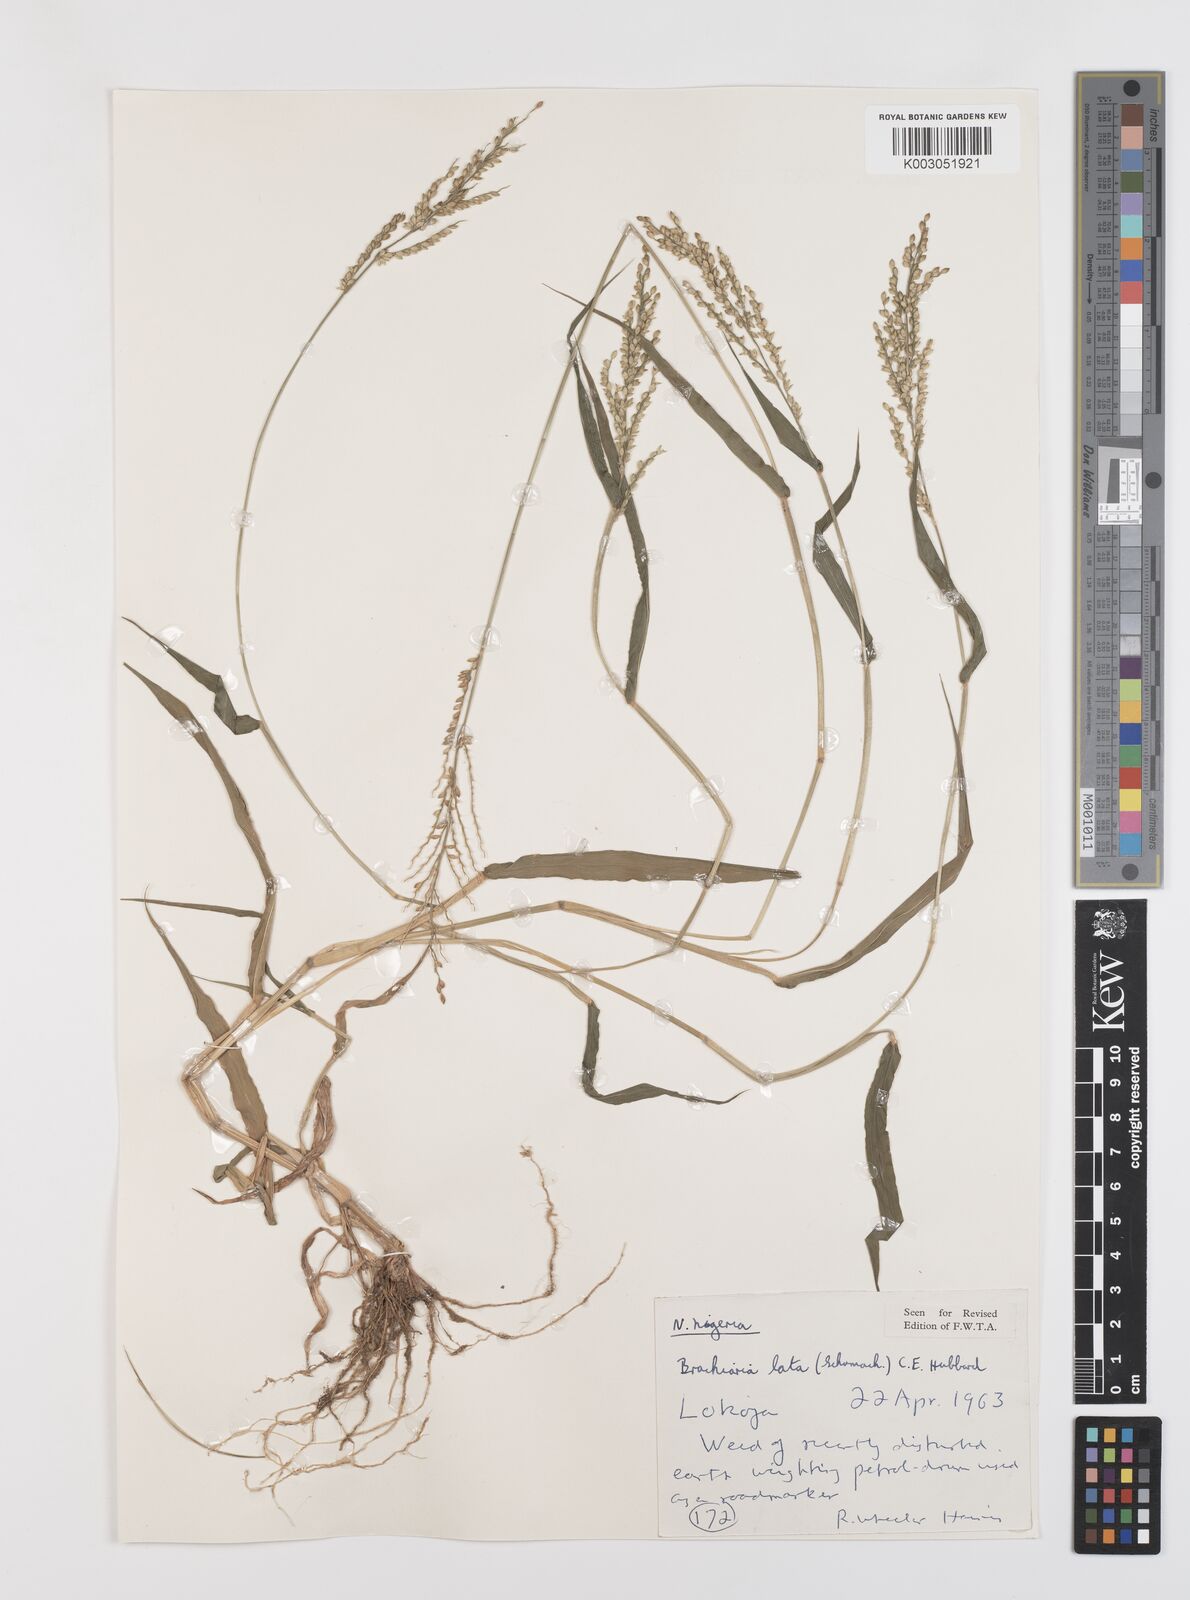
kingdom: Plantae
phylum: Tracheophyta
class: Liliopsida
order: Poales
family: Poaceae
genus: Urochloa
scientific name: Urochloa lata
